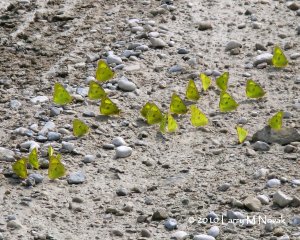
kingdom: Animalia
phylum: Arthropoda
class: Insecta
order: Lepidoptera
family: Pieridae
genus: Colias
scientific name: Colias philodice
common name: Clouded Sulphur
